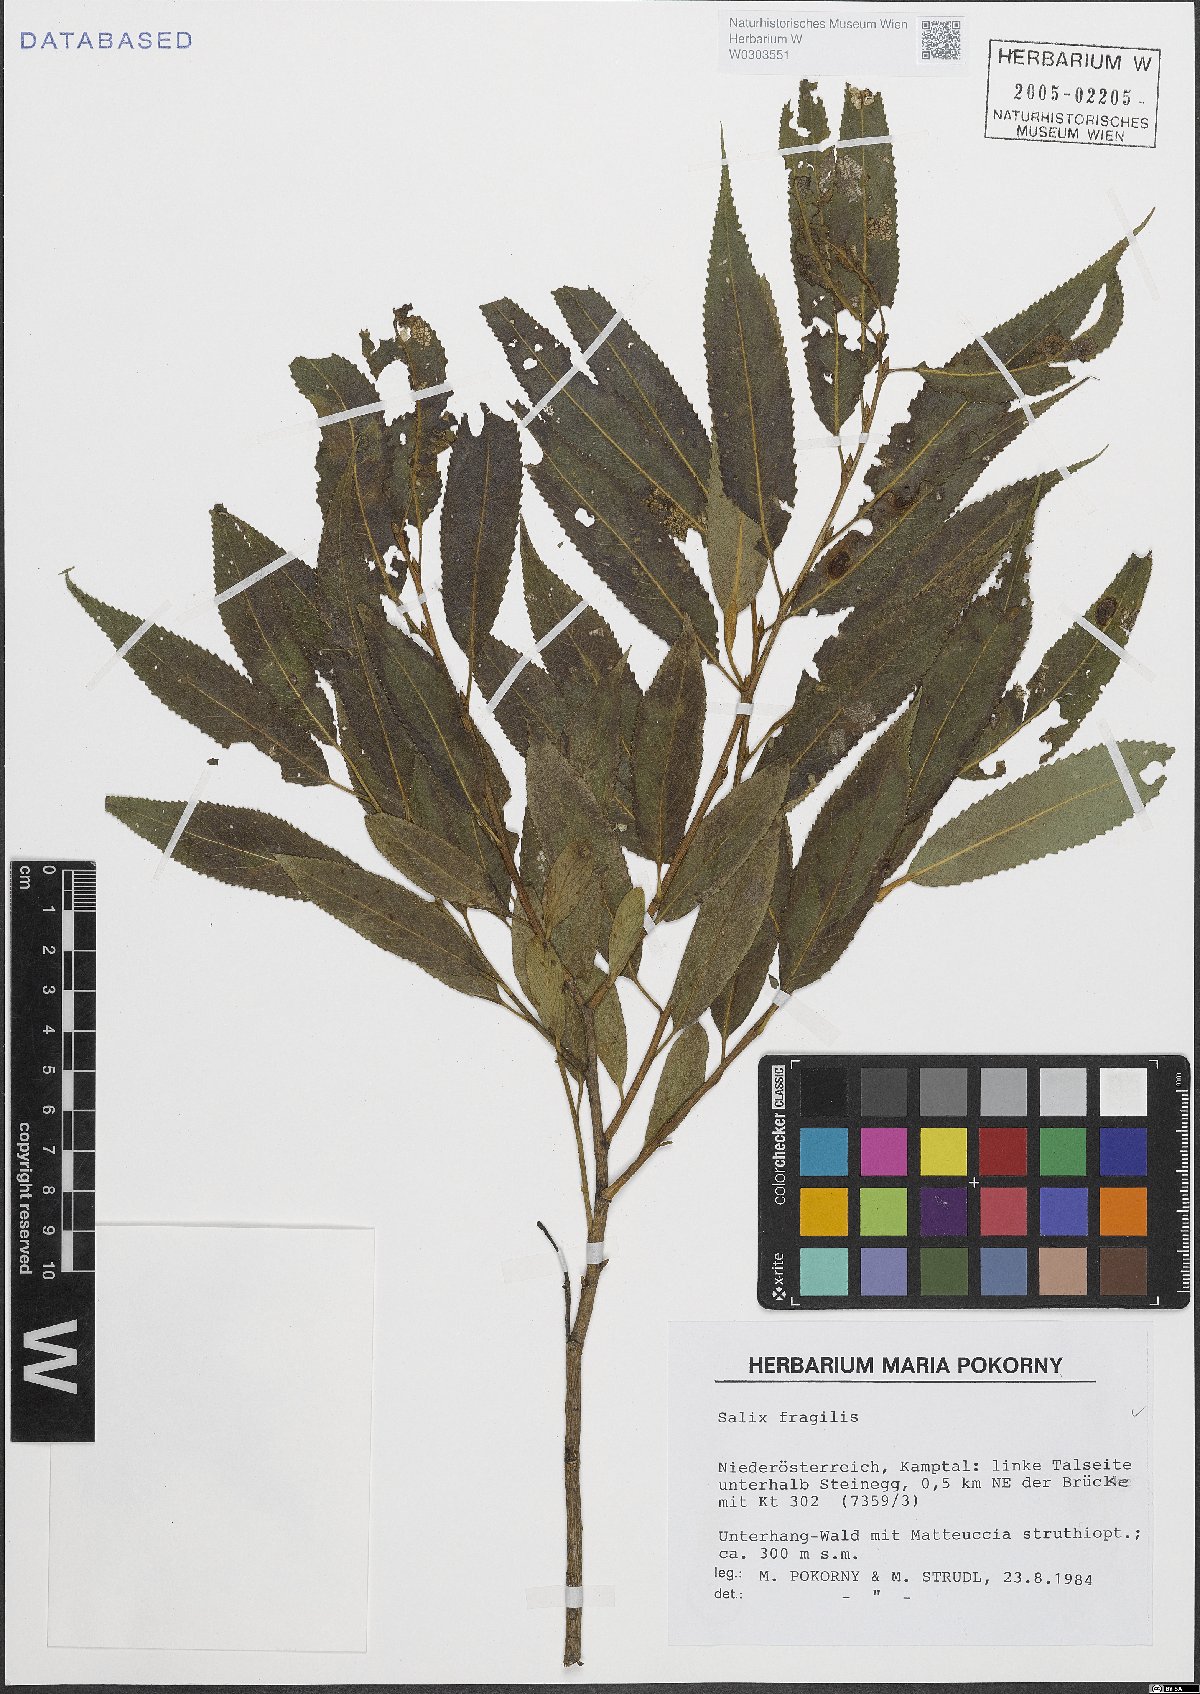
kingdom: Plantae
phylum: Tracheophyta
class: Magnoliopsida
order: Malpighiales
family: Salicaceae
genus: Salix
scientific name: Salix fragilis
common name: Crack willow
